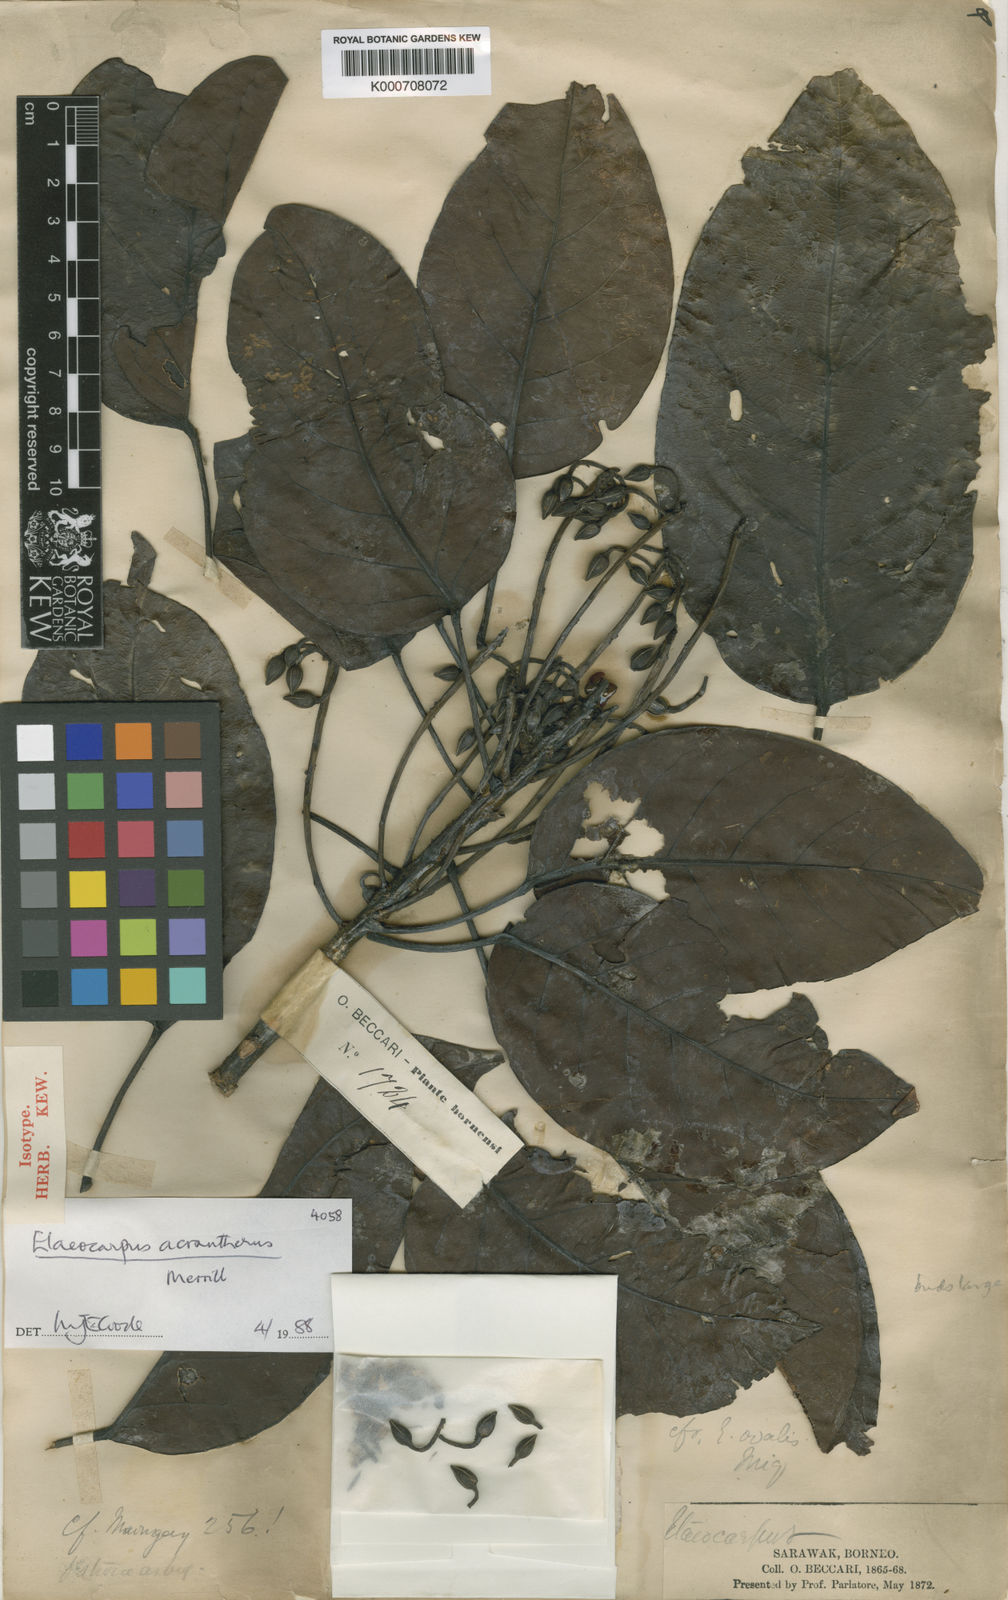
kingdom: Plantae
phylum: Tracheophyta
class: Magnoliopsida
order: Oxalidales
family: Elaeocarpaceae
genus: Elaeocarpus
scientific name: Elaeocarpus acrantherus
